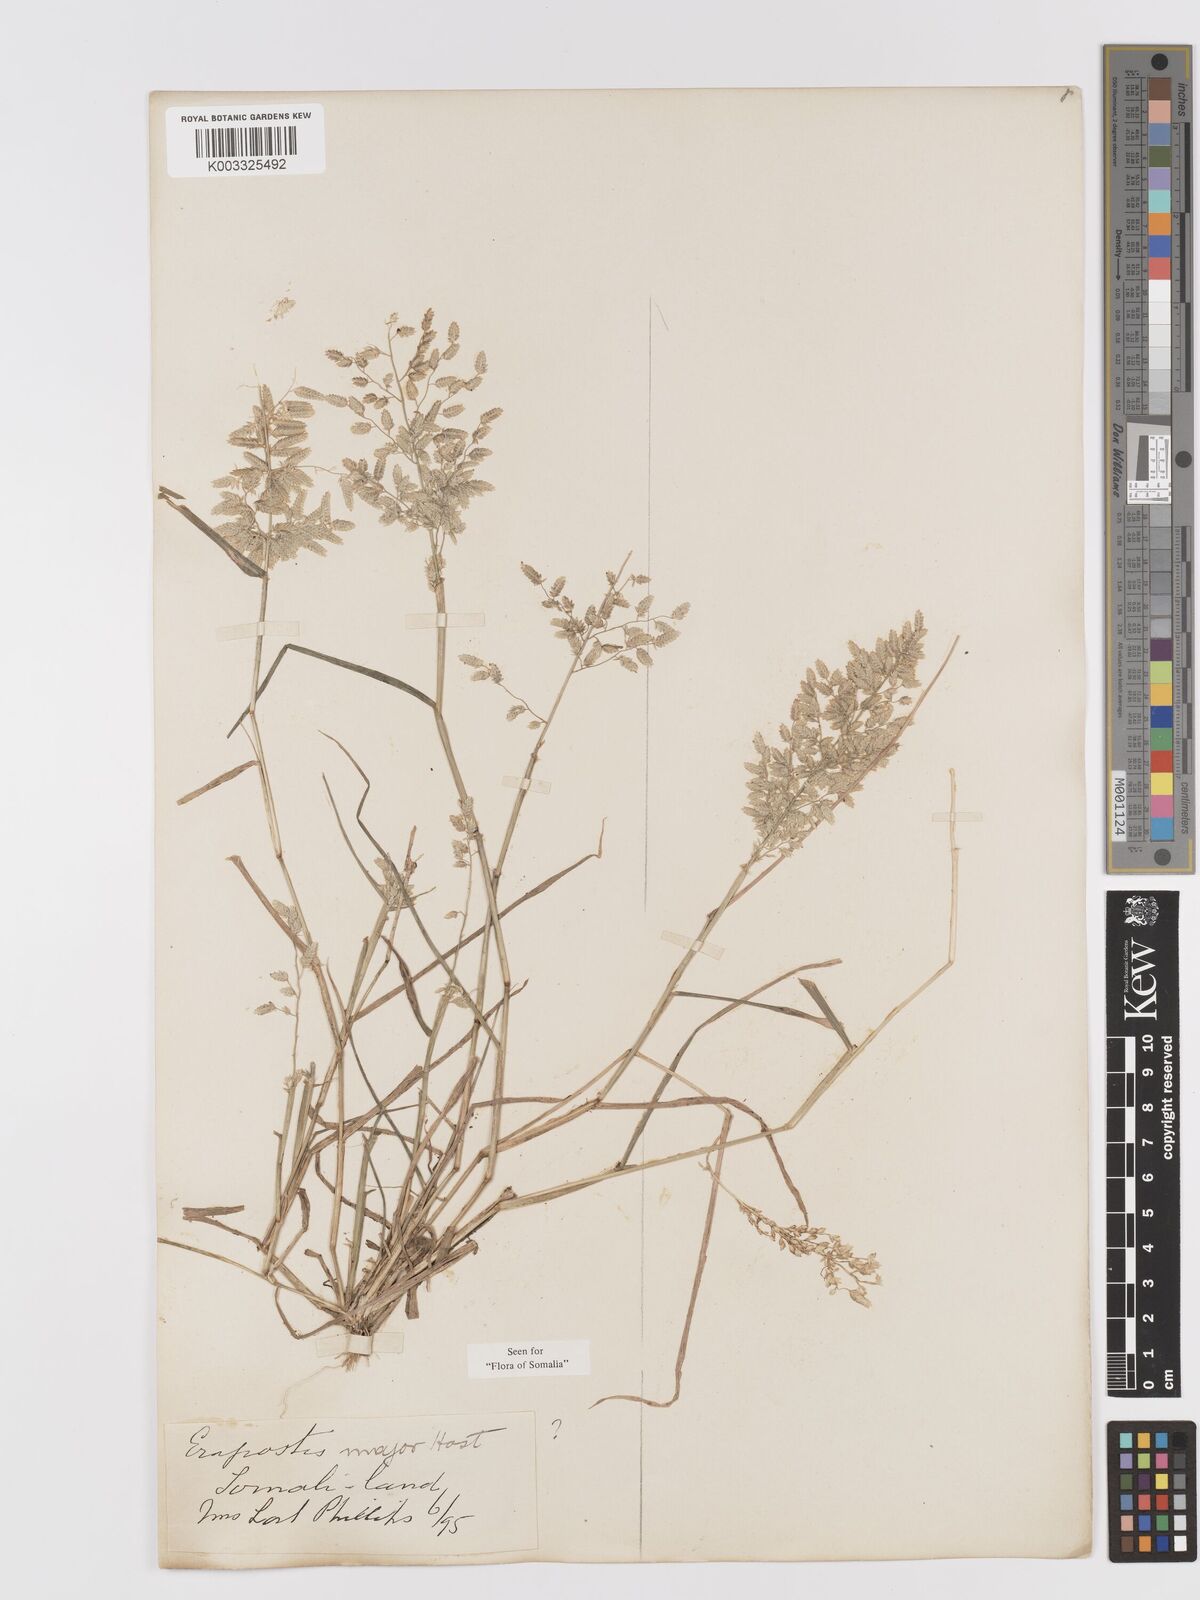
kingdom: Plantae
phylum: Tracheophyta
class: Liliopsida
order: Poales
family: Poaceae
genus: Eragrostis
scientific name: Eragrostis cilianensis
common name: Stinkgrass
